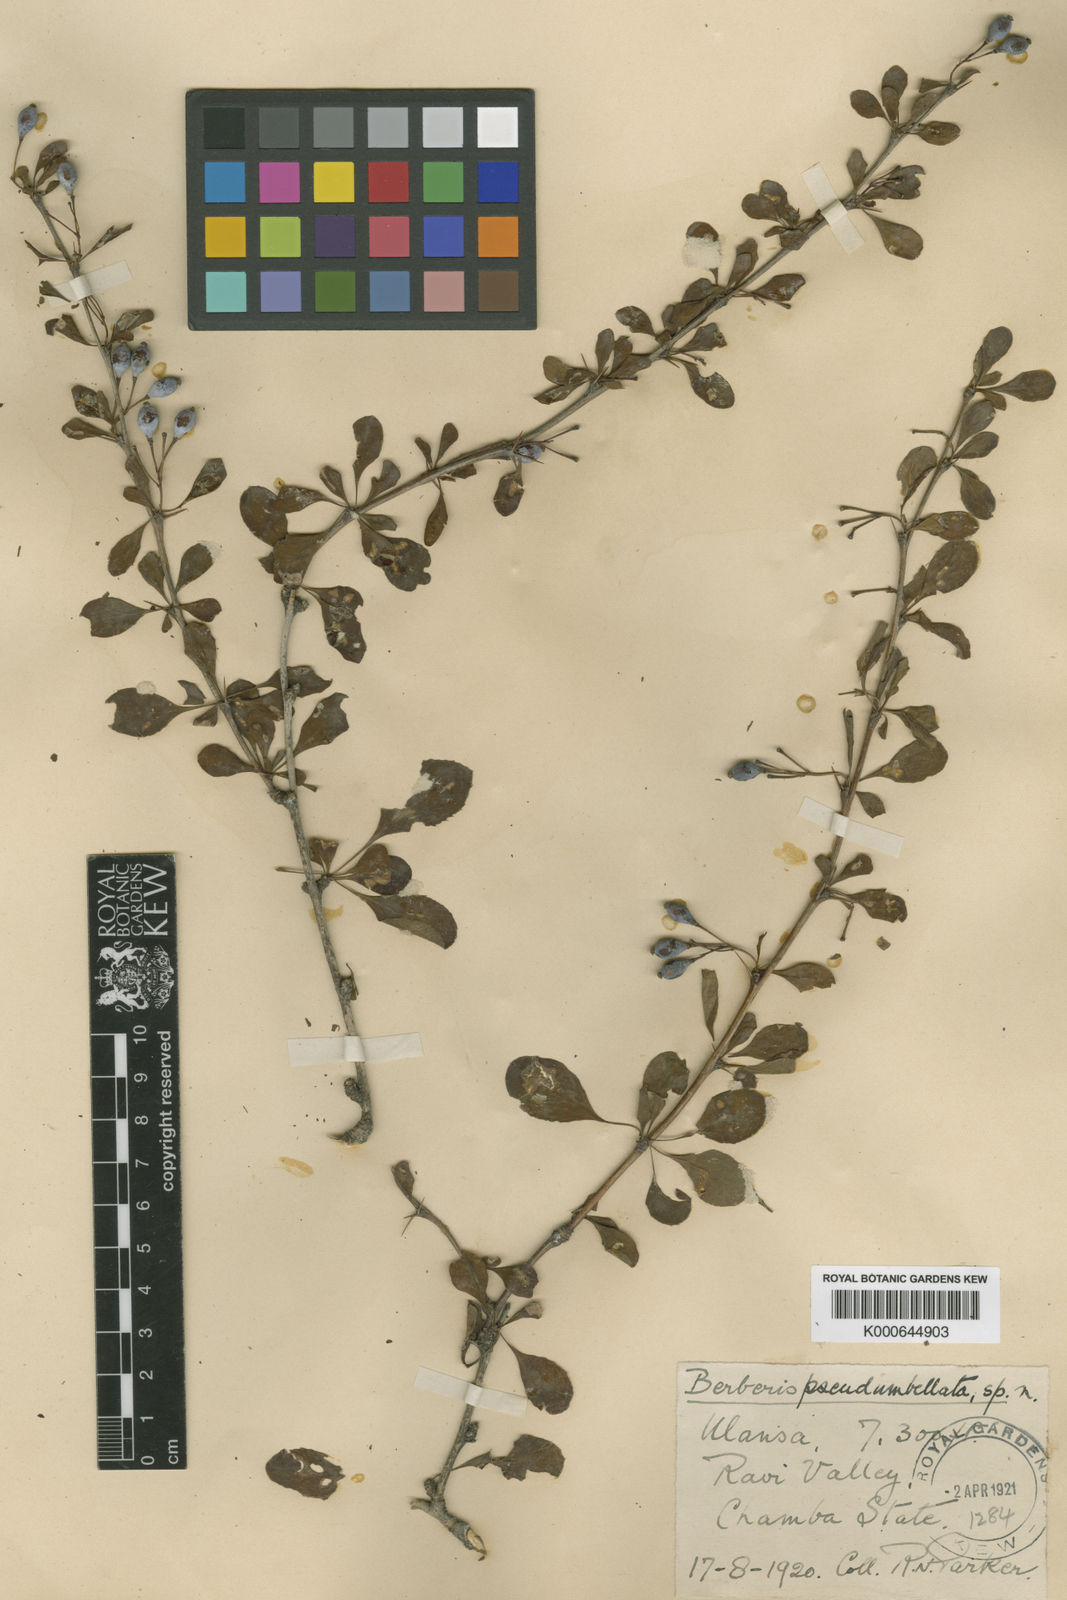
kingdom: Plantae
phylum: Tracheophyta
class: Magnoliopsida
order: Ranunculales
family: Berberidaceae
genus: Berberis
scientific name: Berberis pseudumbellata
